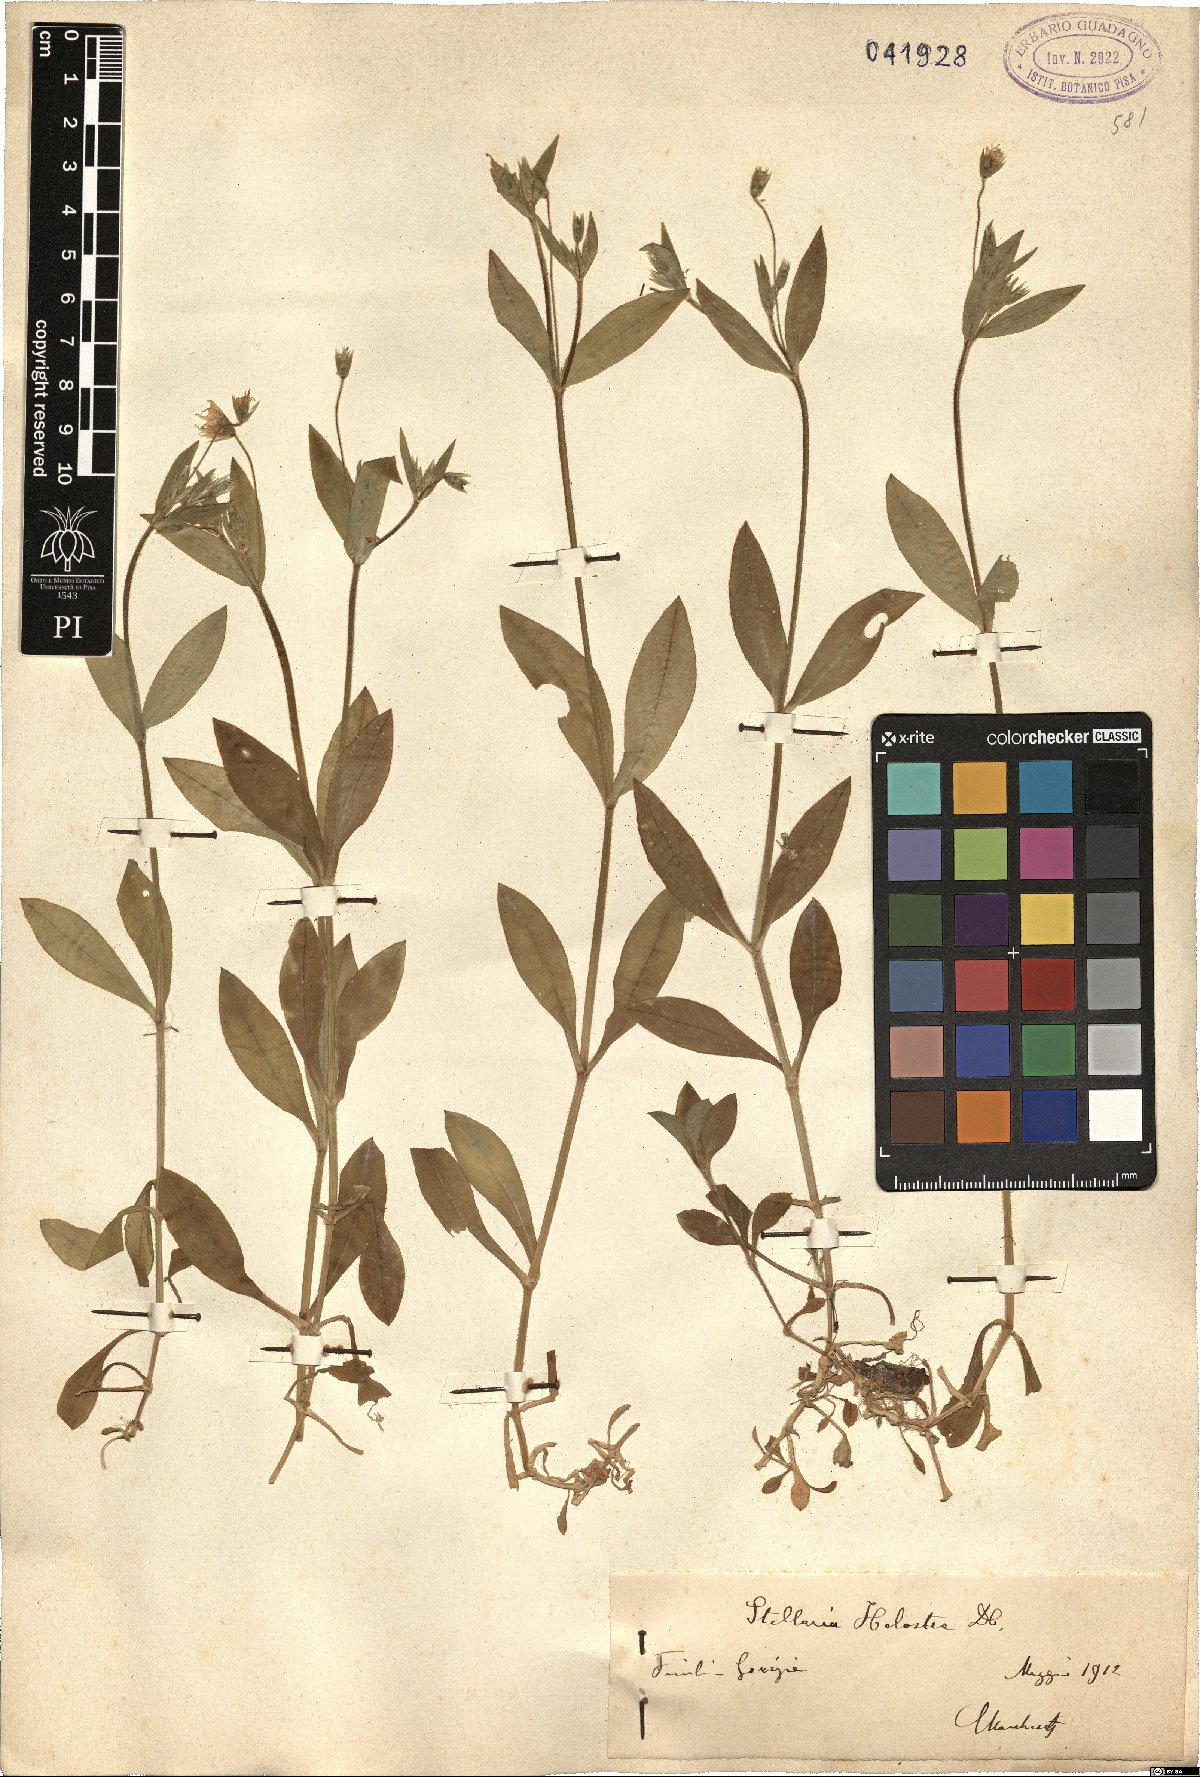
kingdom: Plantae
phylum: Tracheophyta
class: Magnoliopsida
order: Caryophyllales
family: Caryophyllaceae
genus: Rabelera
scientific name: Rabelera holostea
